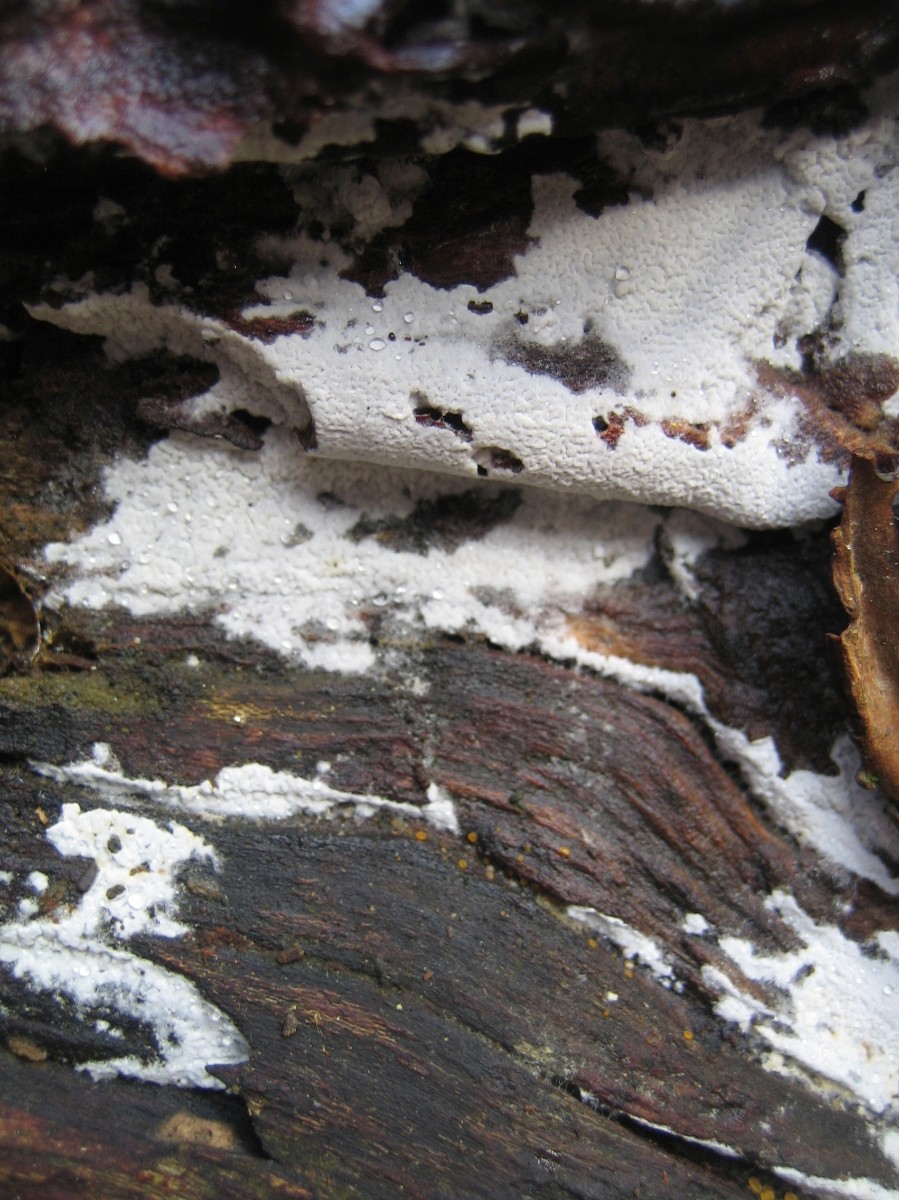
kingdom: Fungi
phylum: Basidiomycota
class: Agaricomycetes
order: Atheliales
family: Atheliaceae
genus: Athelia
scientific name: Athelia
